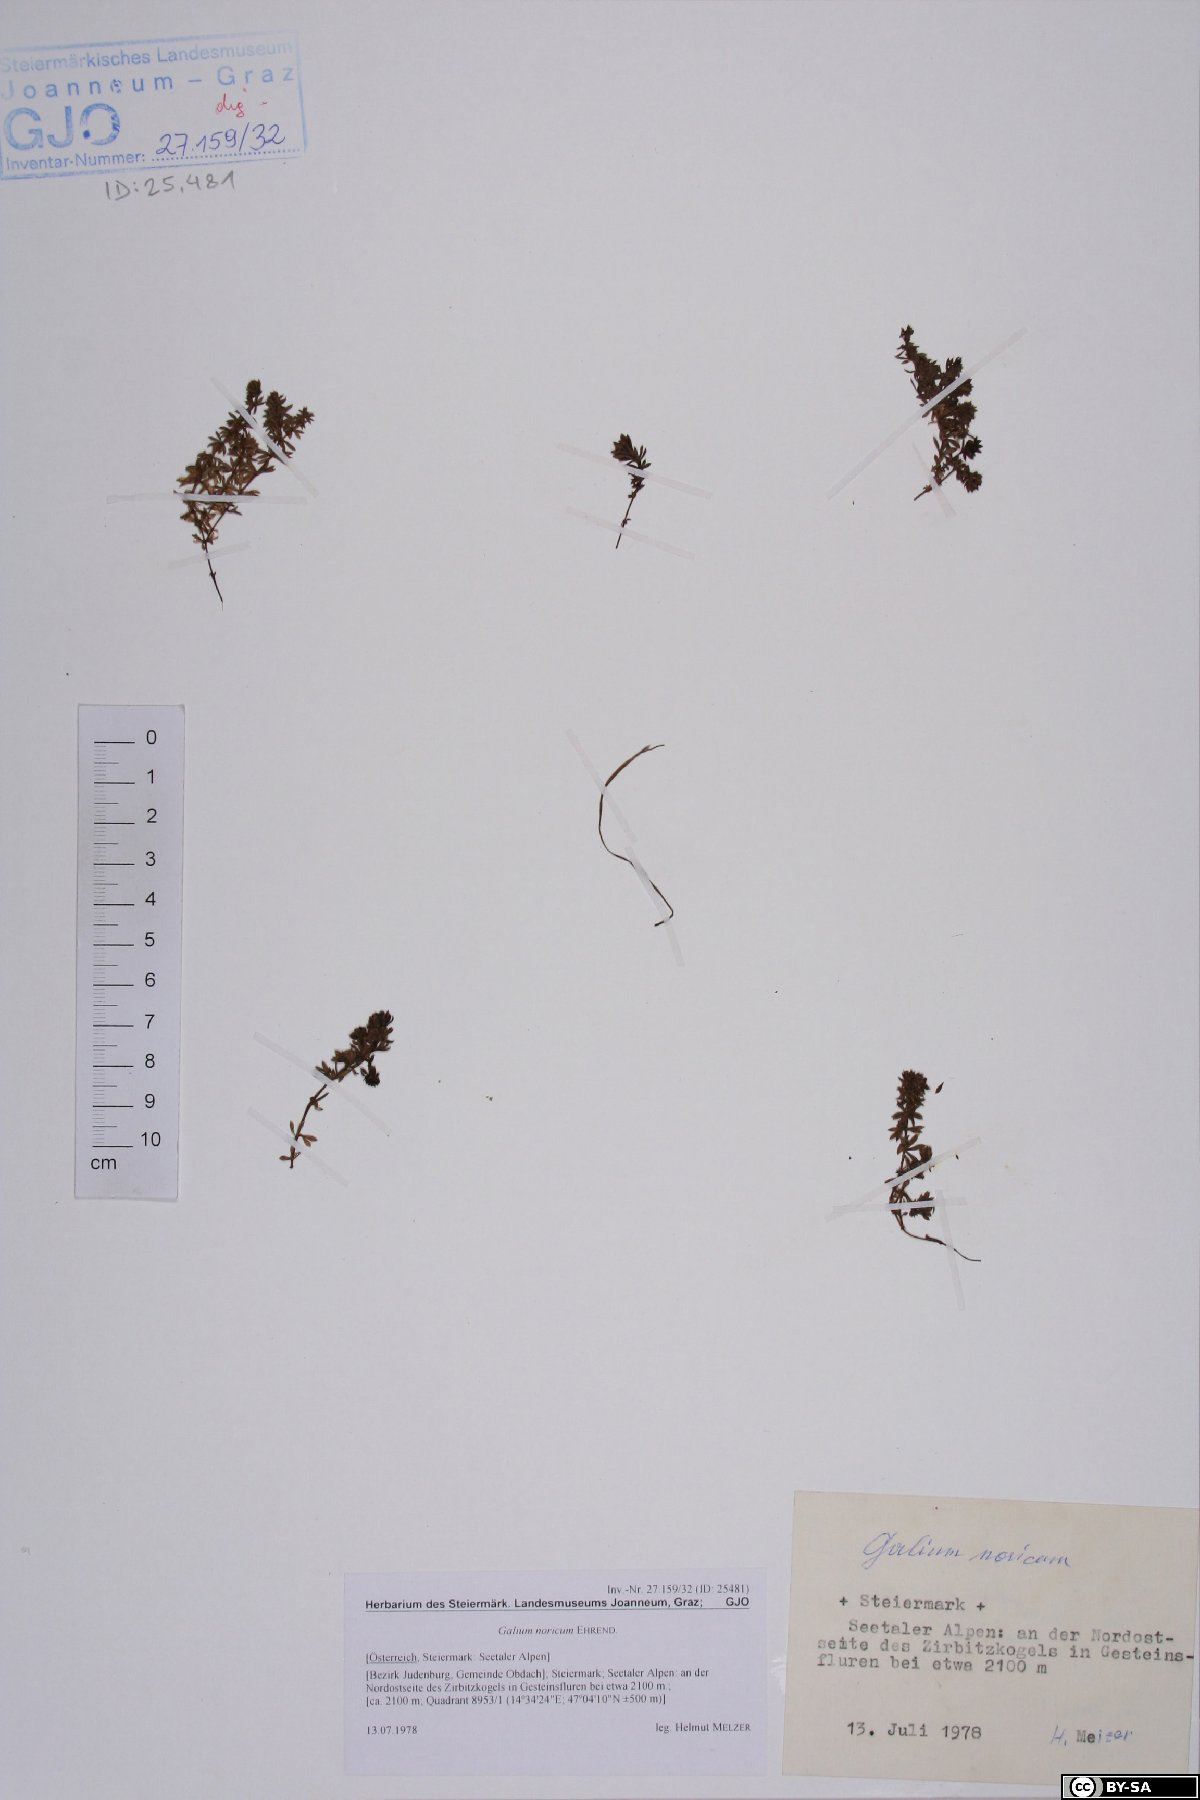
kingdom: Plantae
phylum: Tracheophyta
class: Magnoliopsida
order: Gentianales
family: Rubiaceae
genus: Galium
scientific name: Galium noricum
